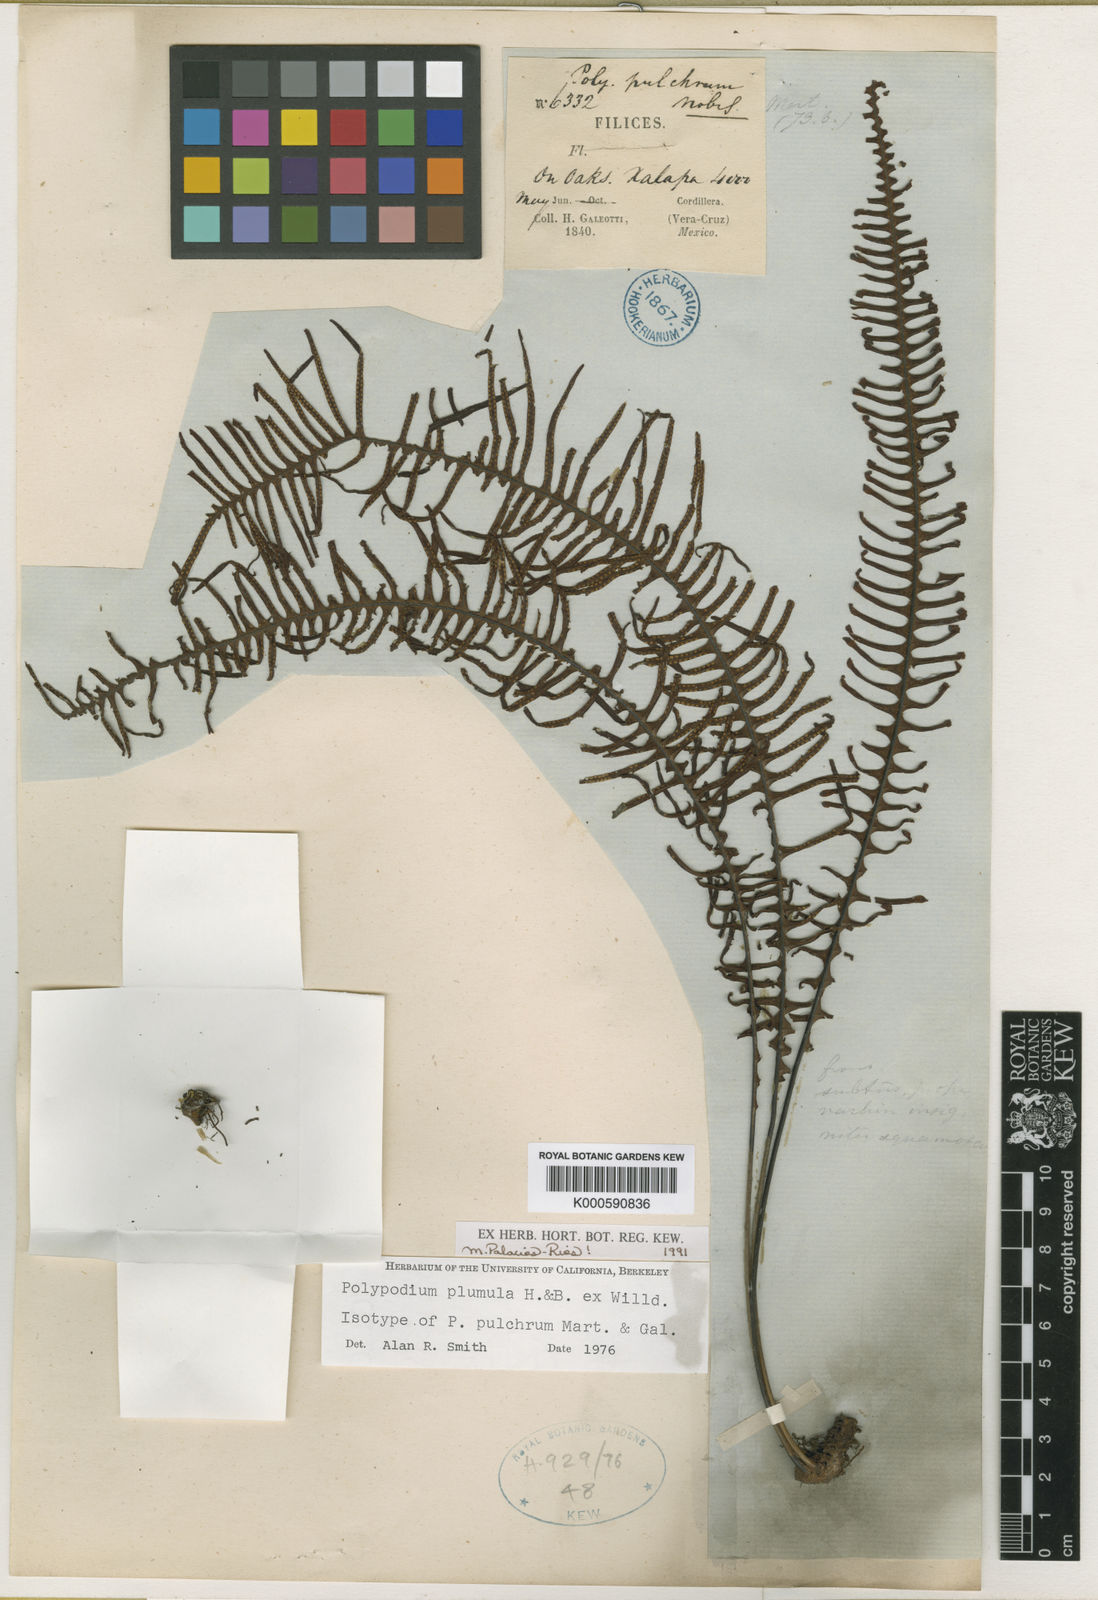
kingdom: Plantae
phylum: Tracheophyta
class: Polypodiopsida
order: Polypodiales
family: Polypodiaceae
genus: Pecluma
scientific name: Pecluma plumula
